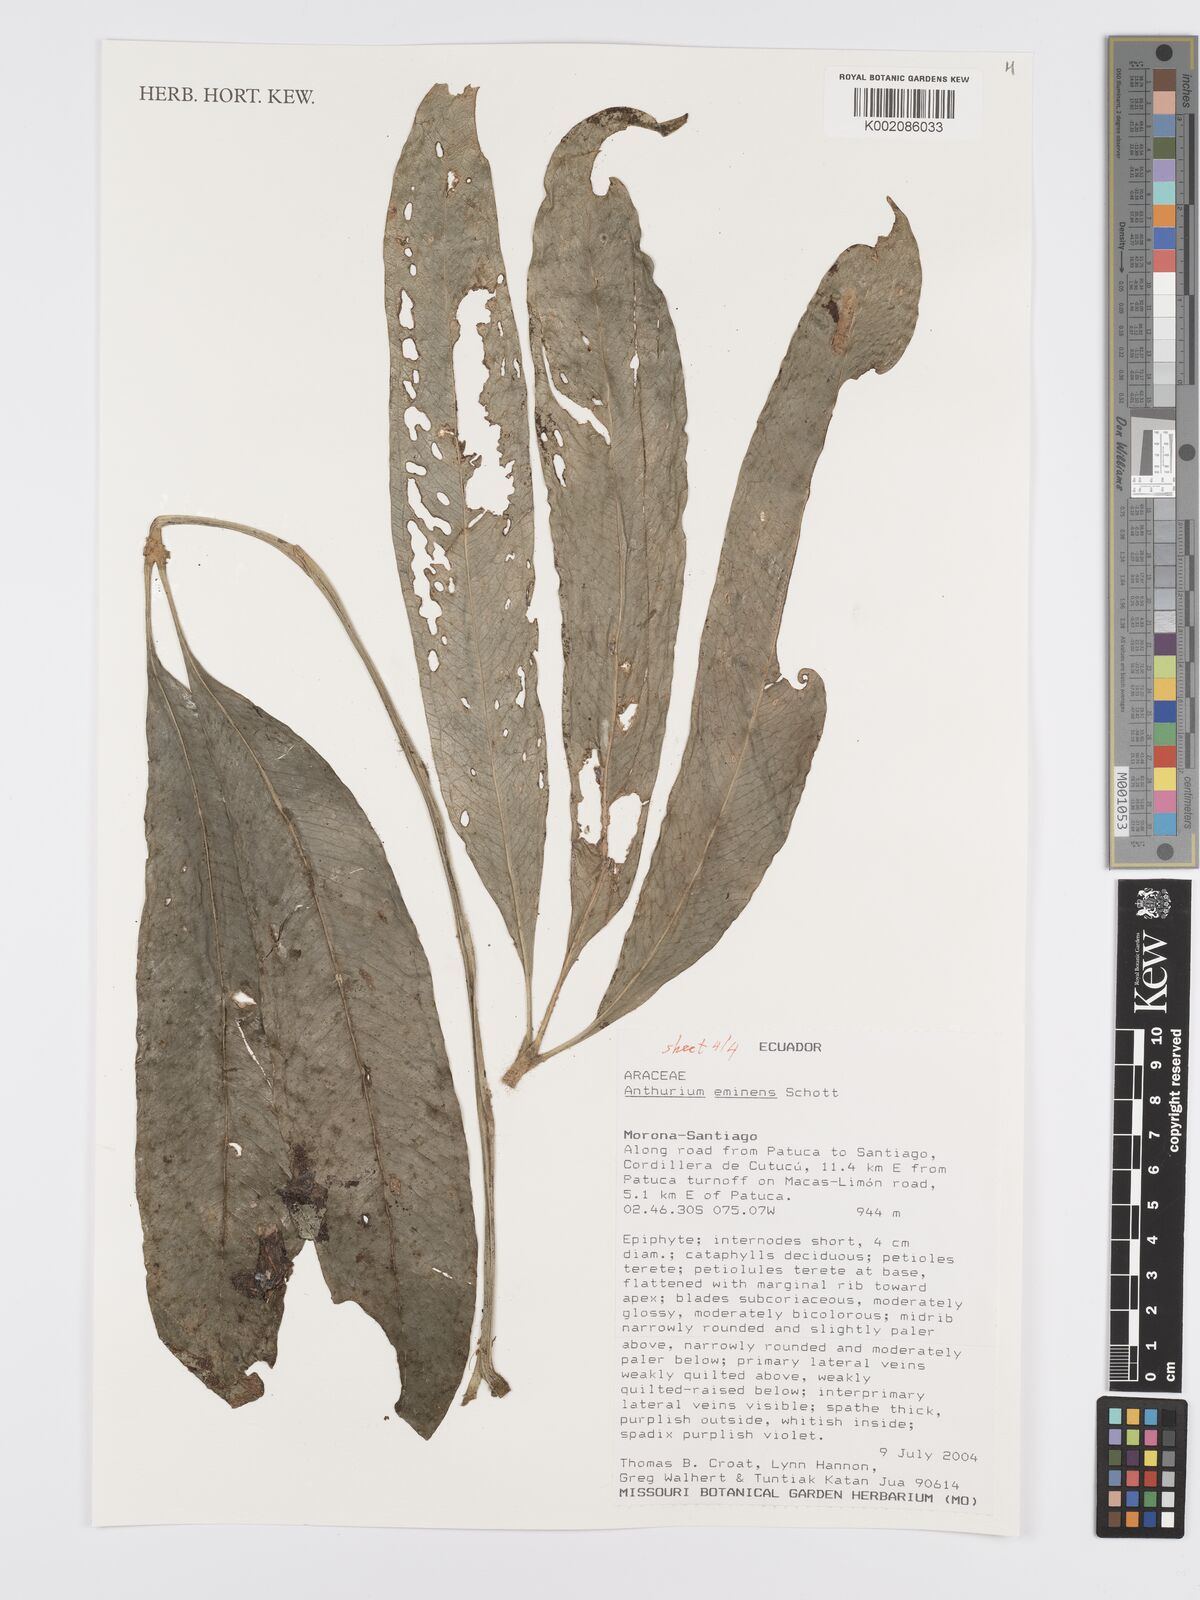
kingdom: Plantae
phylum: Tracheophyta
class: Liliopsida
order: Alismatales
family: Araceae
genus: Anthurium
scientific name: Anthurium eminens
